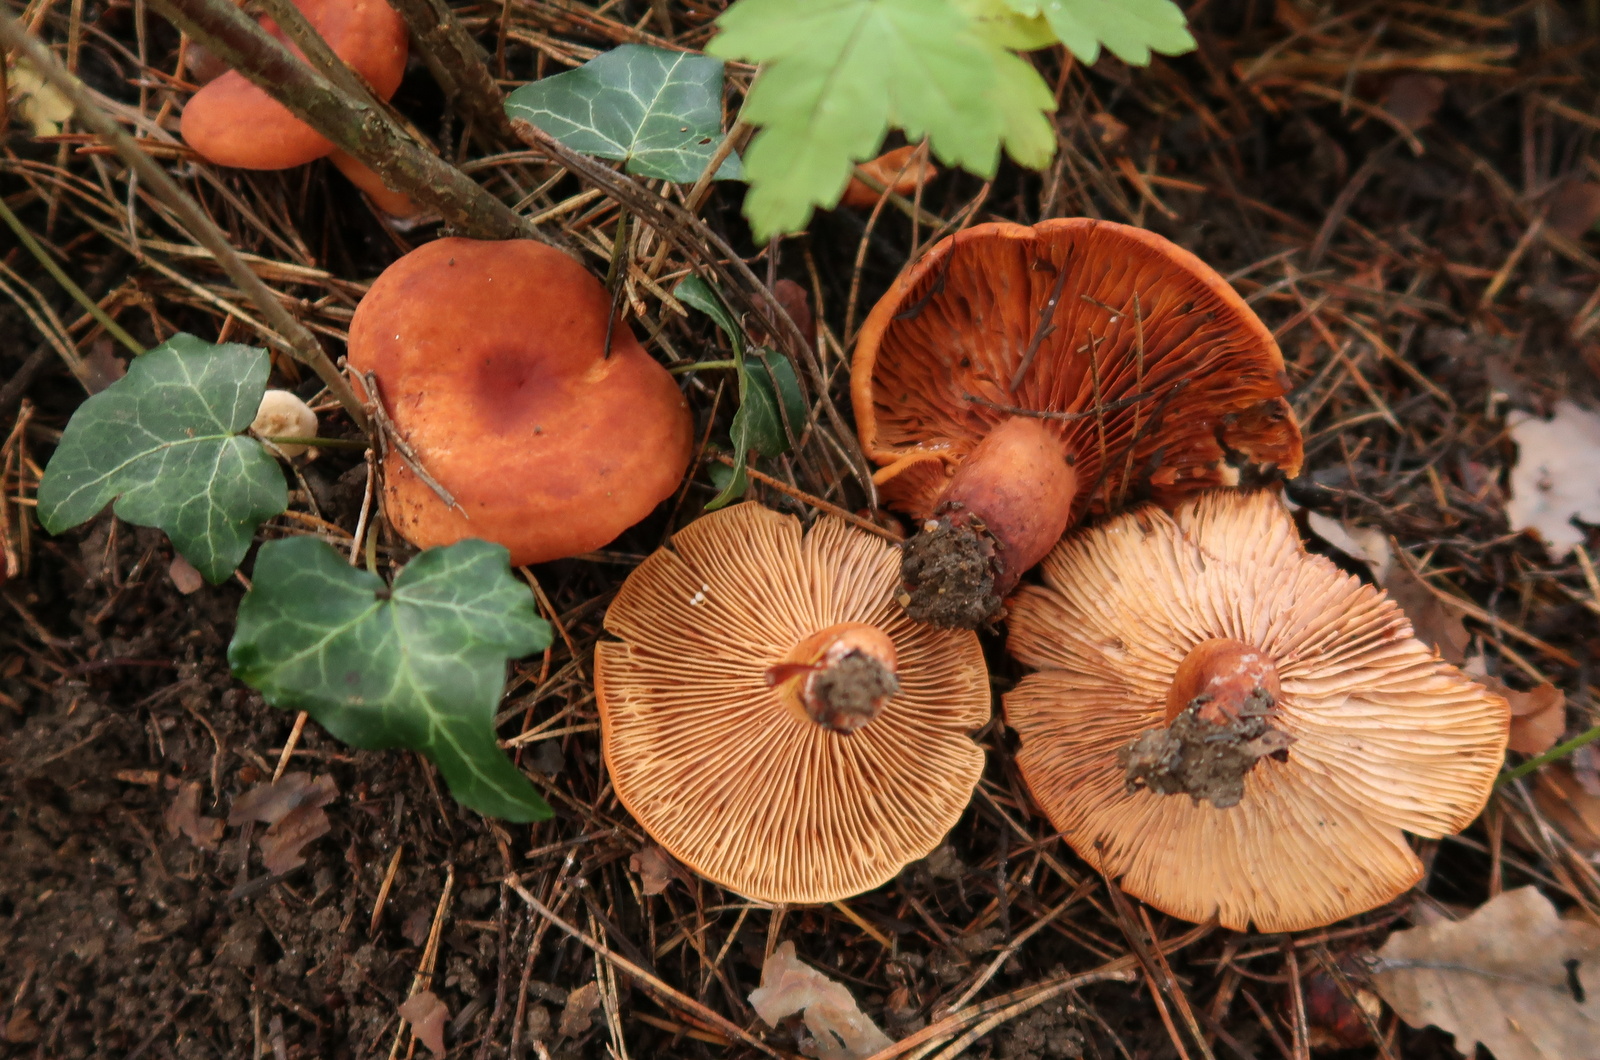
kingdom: Fungi
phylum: Basidiomycota
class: Agaricomycetes
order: Russulales
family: Russulaceae
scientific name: Russulaceae
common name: skørhatfamilien
